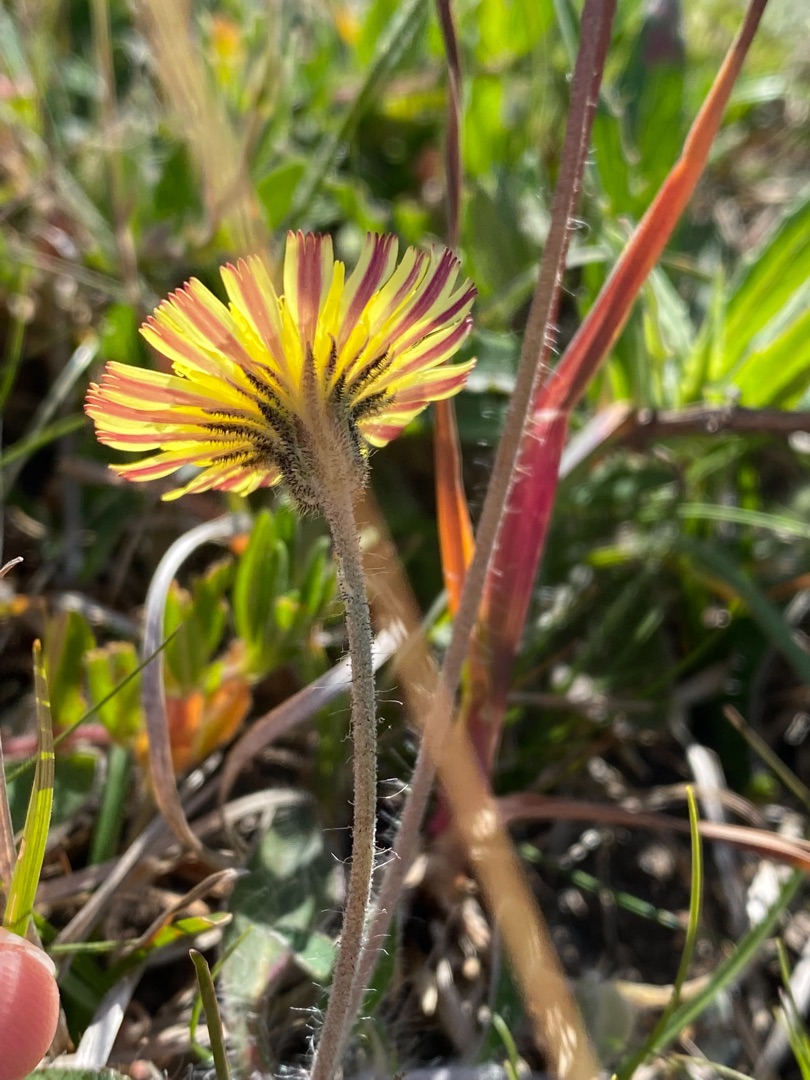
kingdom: Plantae
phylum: Tracheophyta
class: Magnoliopsida
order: Asterales
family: Asteraceae
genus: Pilosella
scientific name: Pilosella officinarum
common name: Håret høgeurt
